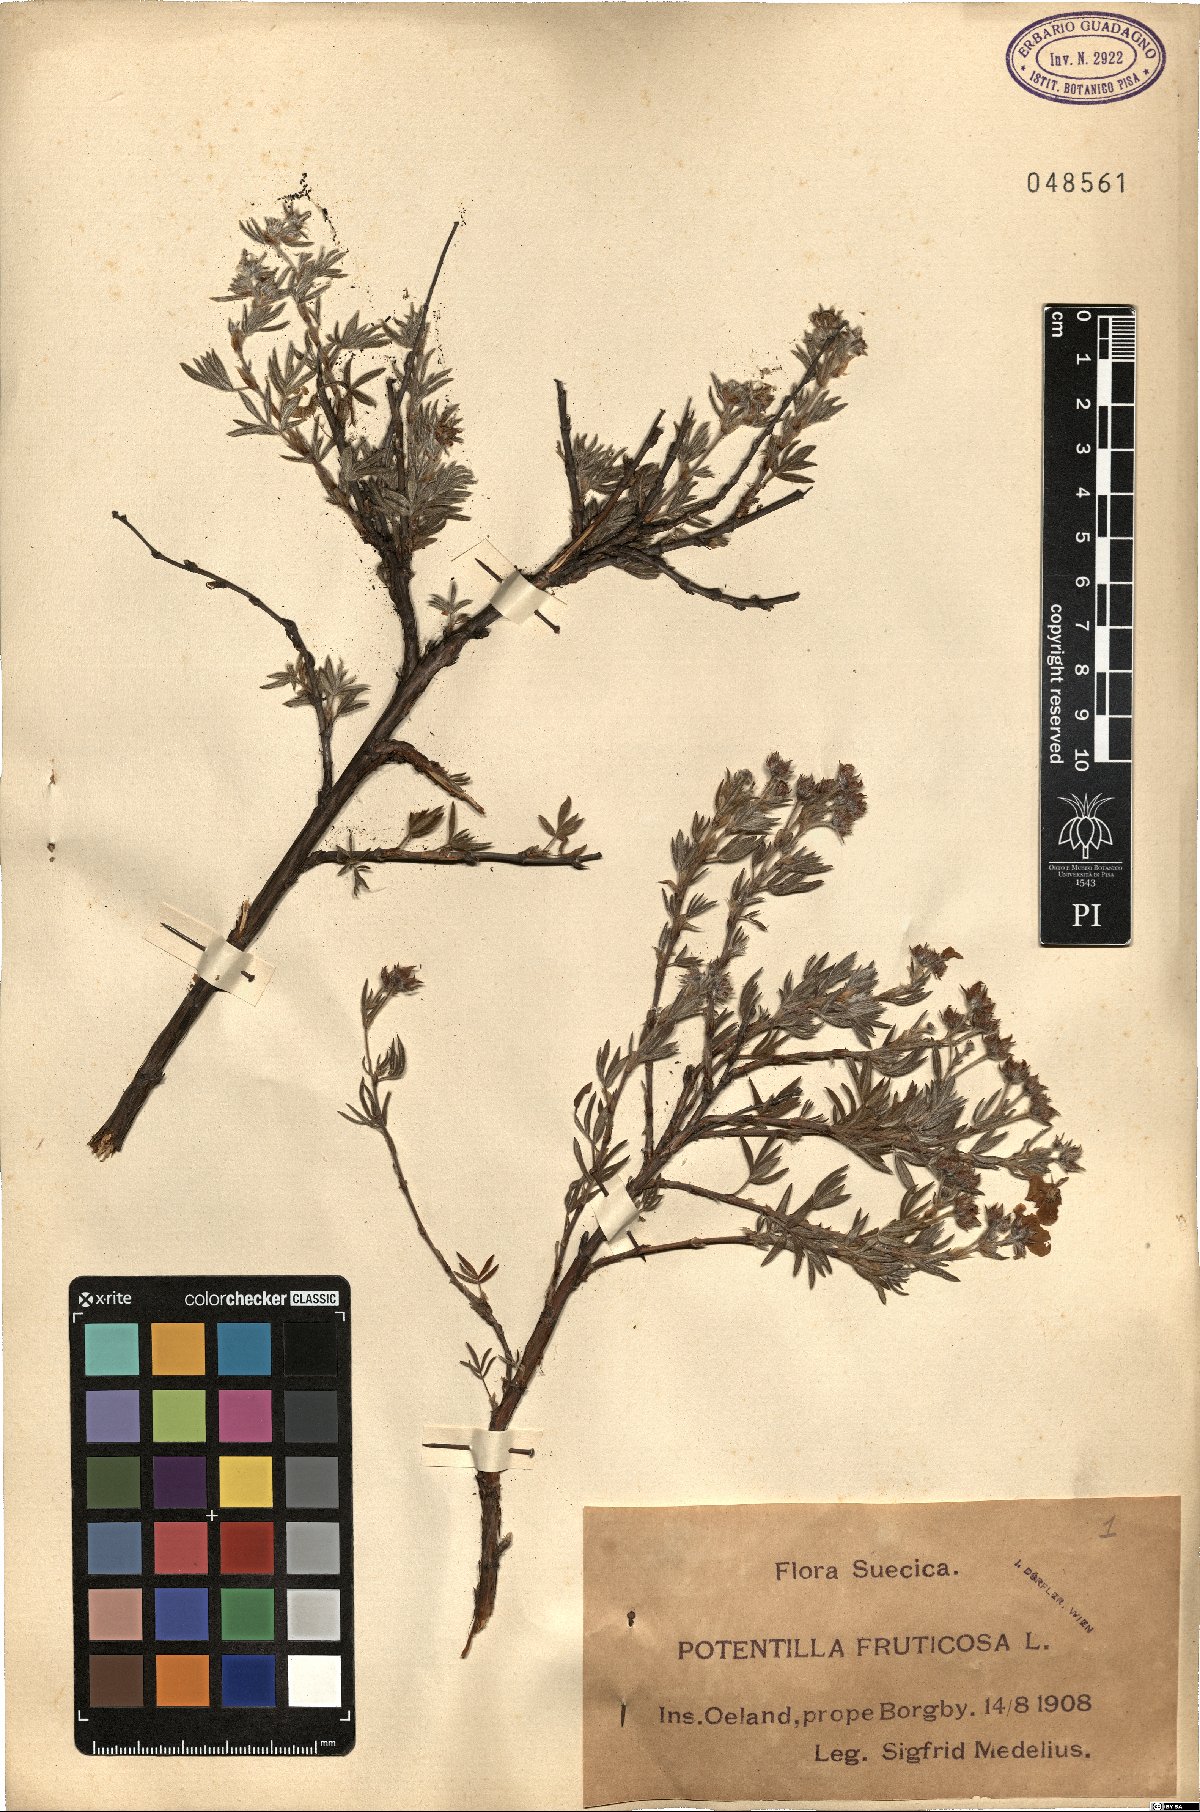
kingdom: Plantae
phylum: Tracheophyta
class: Magnoliopsida
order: Rosales
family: Rosaceae
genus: Dasiphora
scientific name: Dasiphora fruticosa
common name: Shrubby cinquefoil
